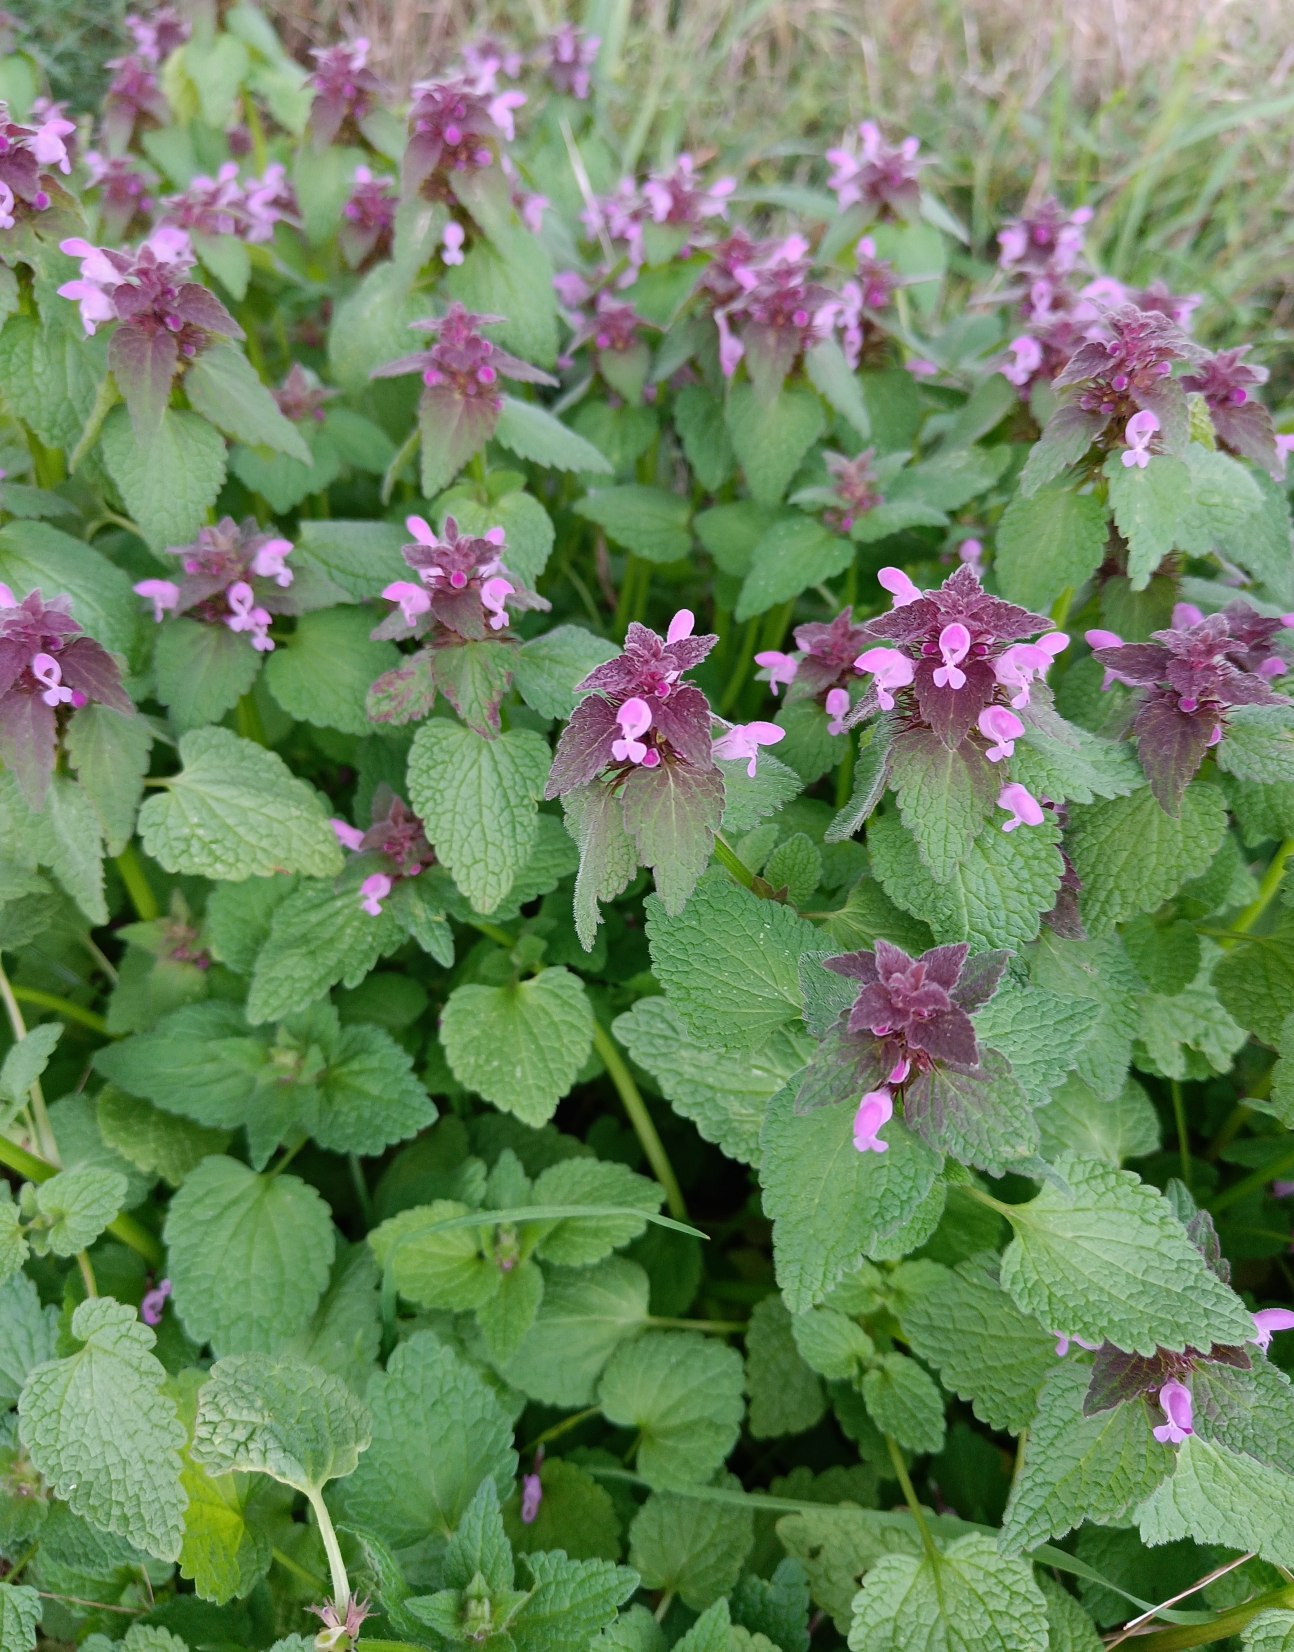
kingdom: Plantae
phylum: Tracheophyta
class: Magnoliopsida
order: Lamiales
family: Lamiaceae
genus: Lamium
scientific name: Lamium purpureum
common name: Rød tvetand
